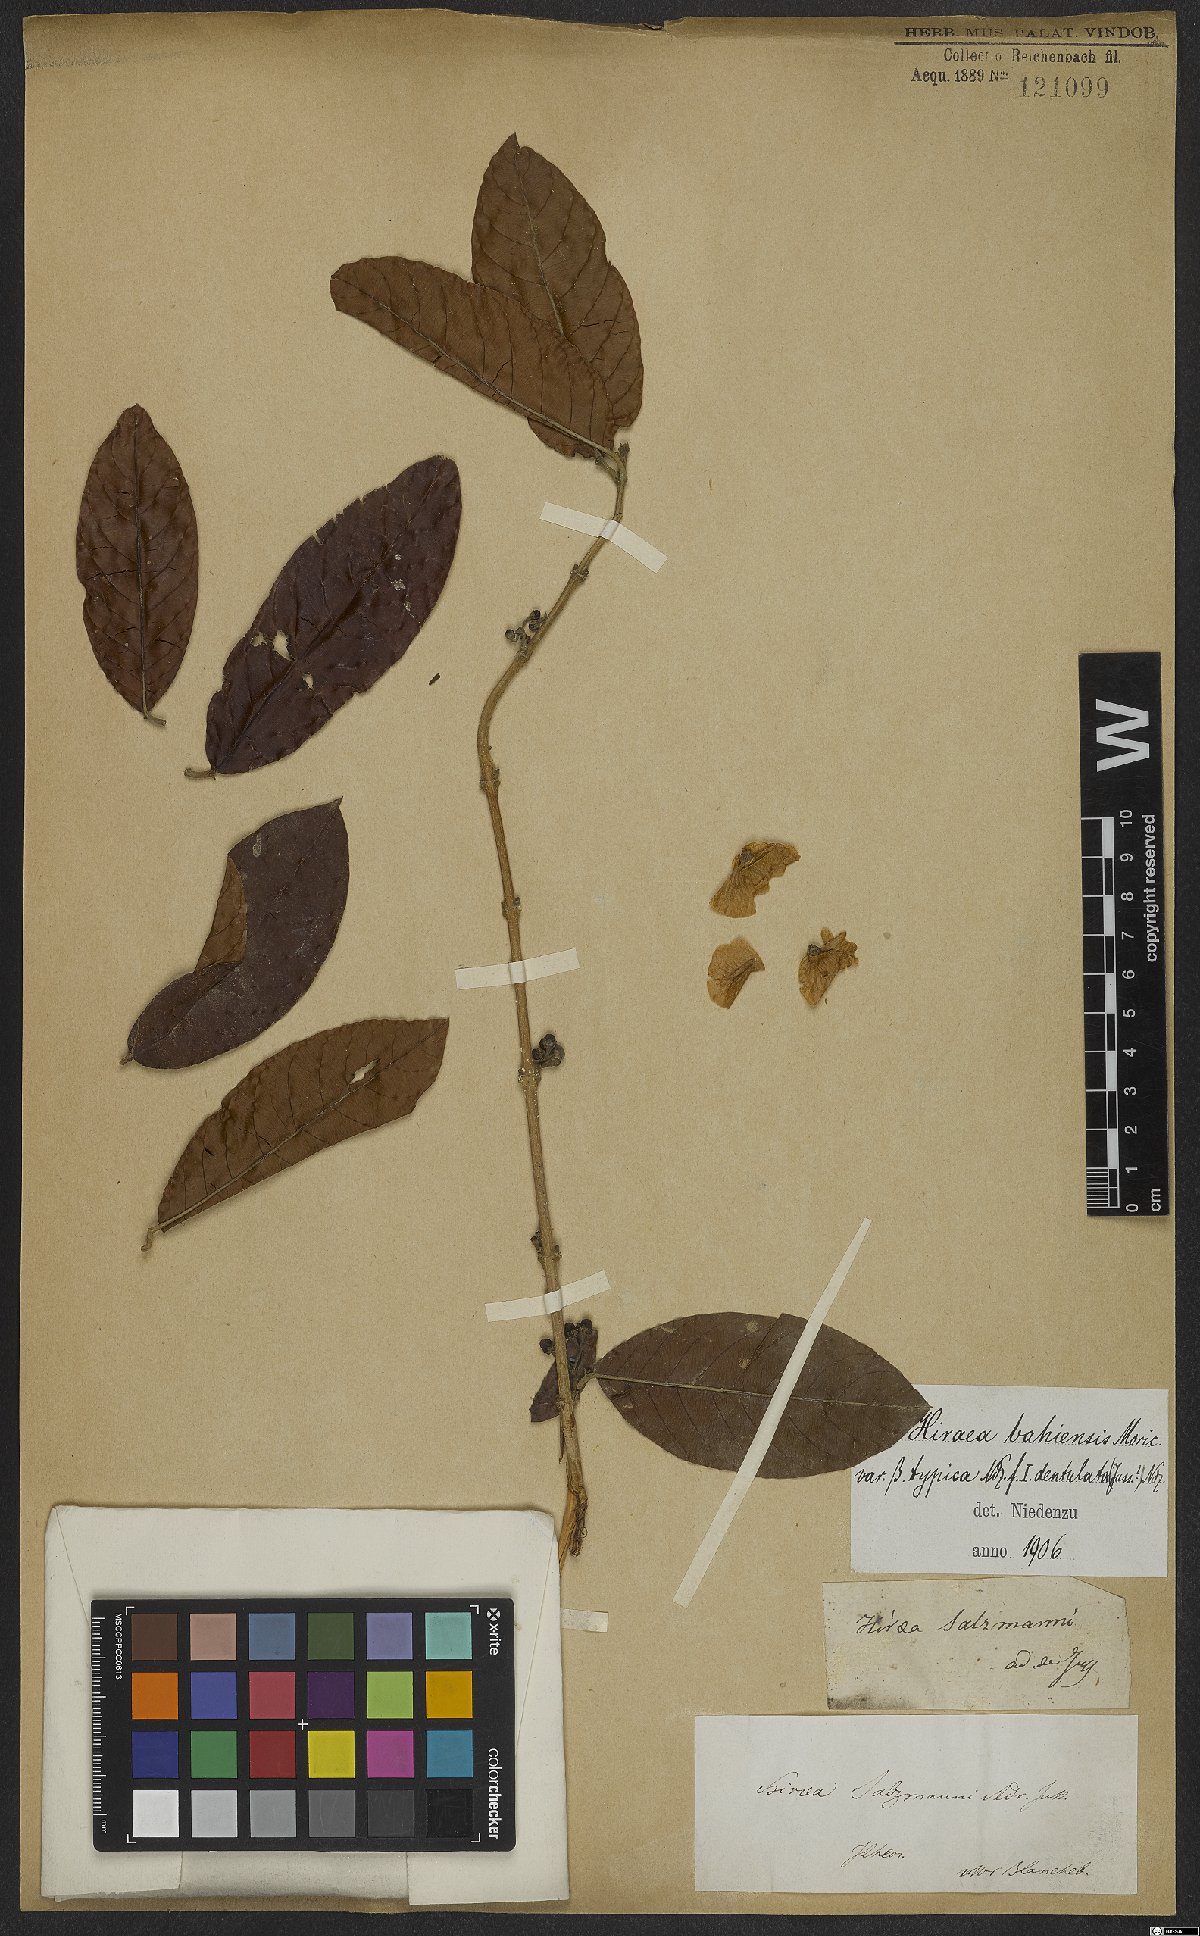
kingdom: Plantae
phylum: Tracheophyta
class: Magnoliopsida
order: Malpighiales
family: Malpighiaceae
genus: Hiraea
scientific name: Hiraea fagifolia
